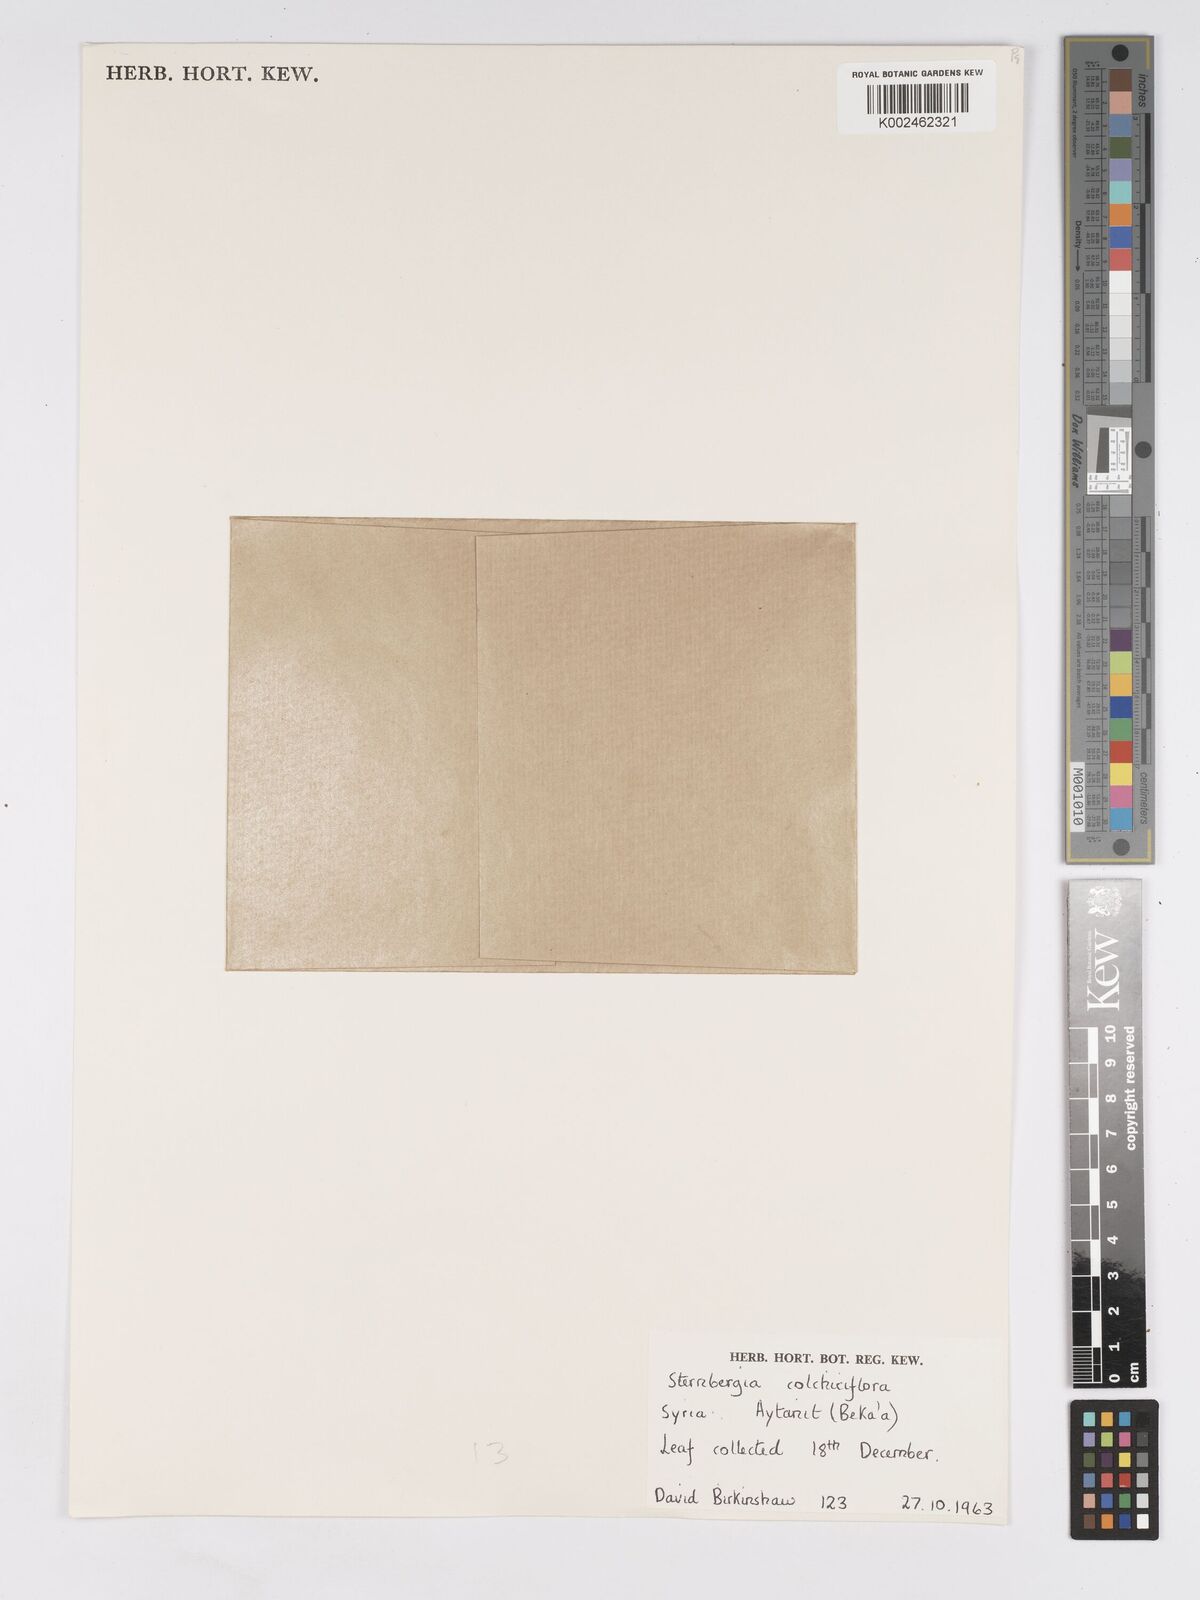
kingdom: Plantae
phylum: Tracheophyta
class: Liliopsida
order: Asparagales
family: Amaryllidaceae
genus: Sternbergia
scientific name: Sternbergia colchiciflora
